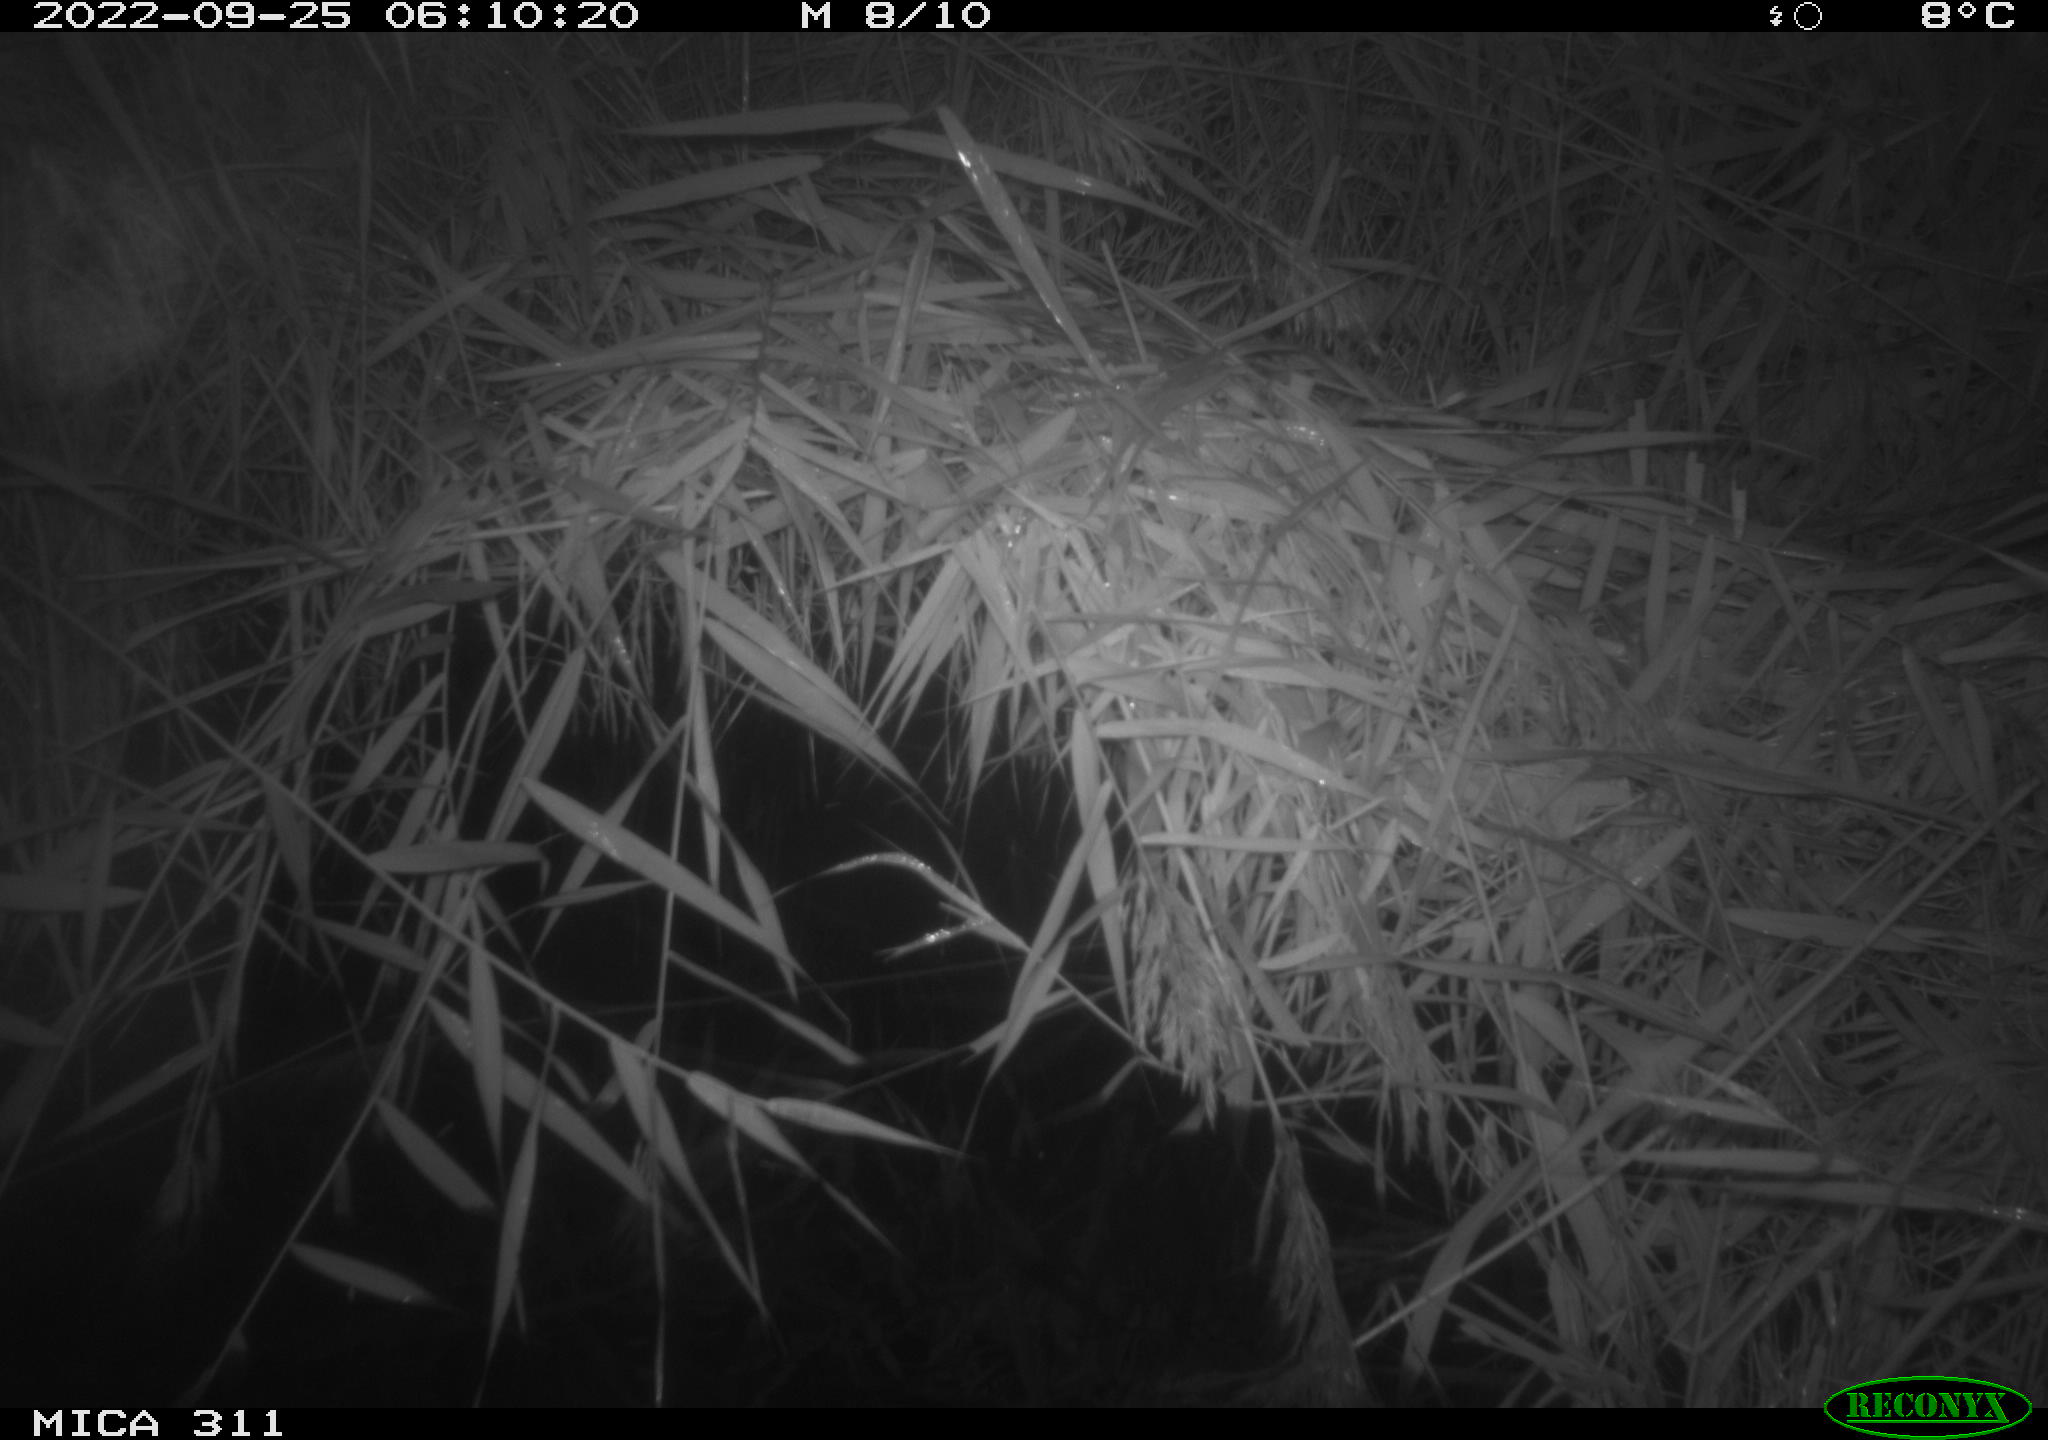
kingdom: Animalia
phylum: Chordata
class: Mammalia
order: Rodentia
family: Cricetidae
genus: Ondatra
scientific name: Ondatra zibethicus
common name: Muskrat
